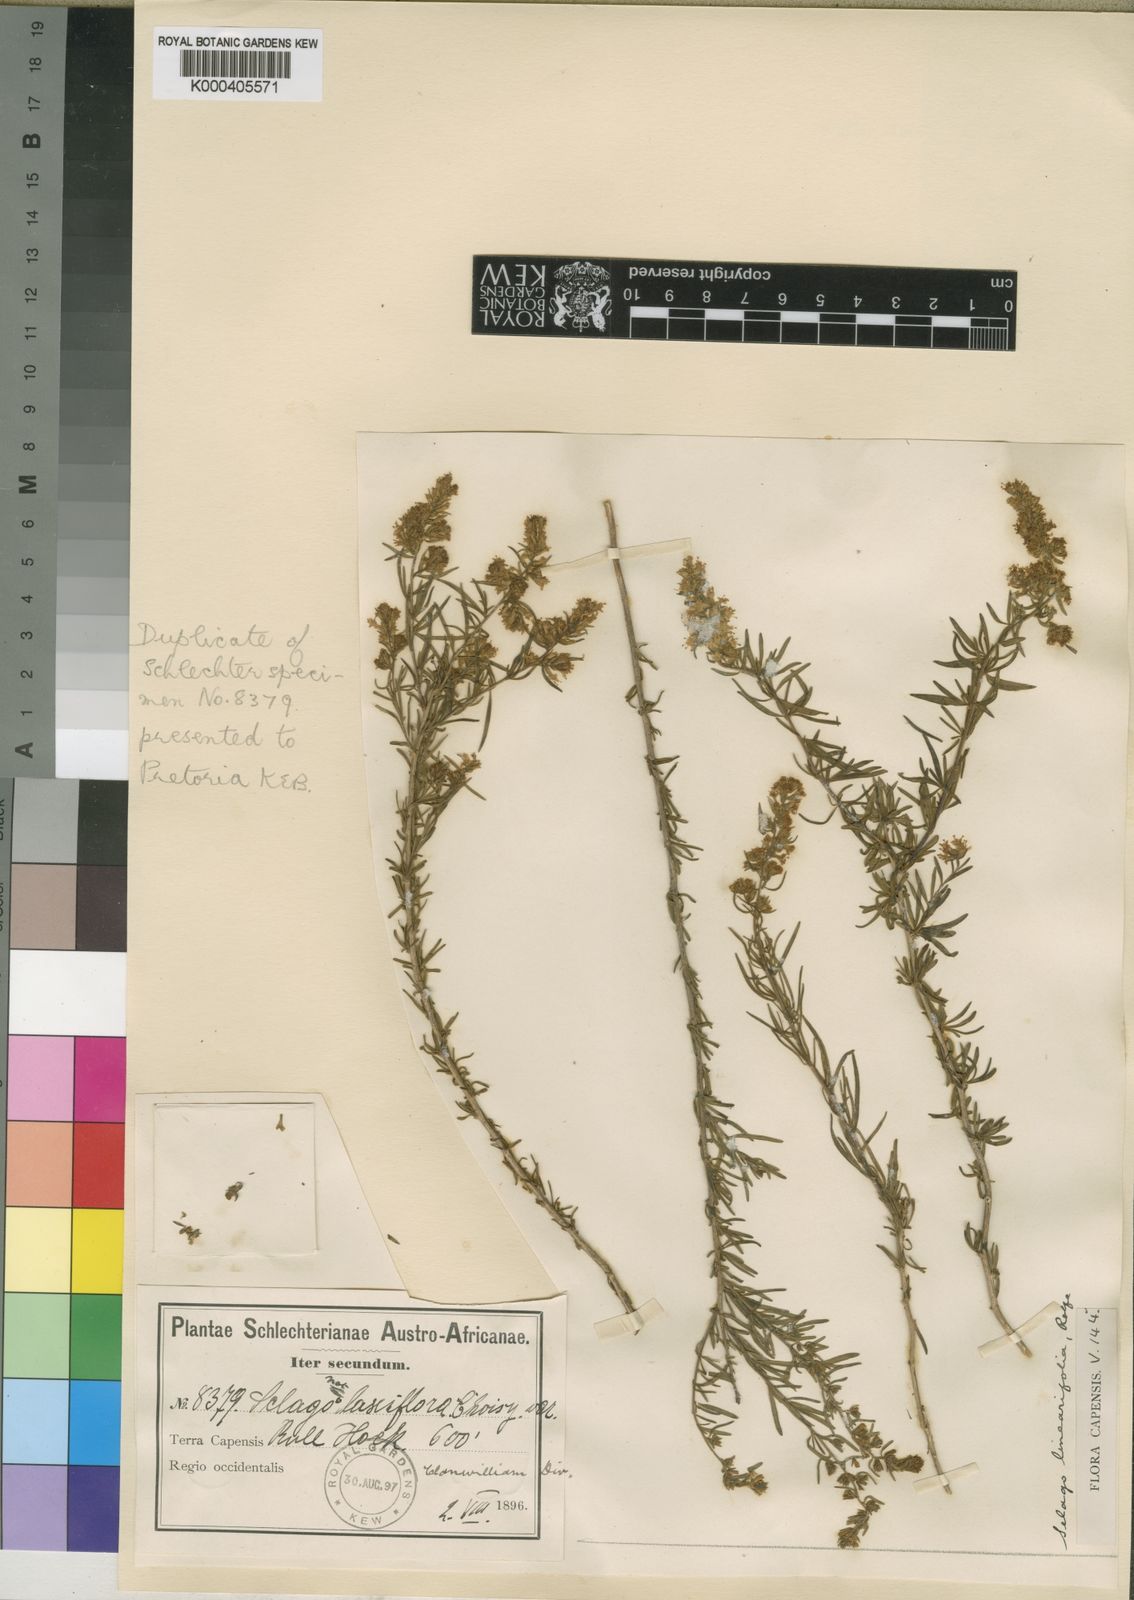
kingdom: Plantae
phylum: Tracheophyta
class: Magnoliopsida
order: Lamiales
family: Scrophulariaceae
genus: Selago
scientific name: Selago linearifolia
